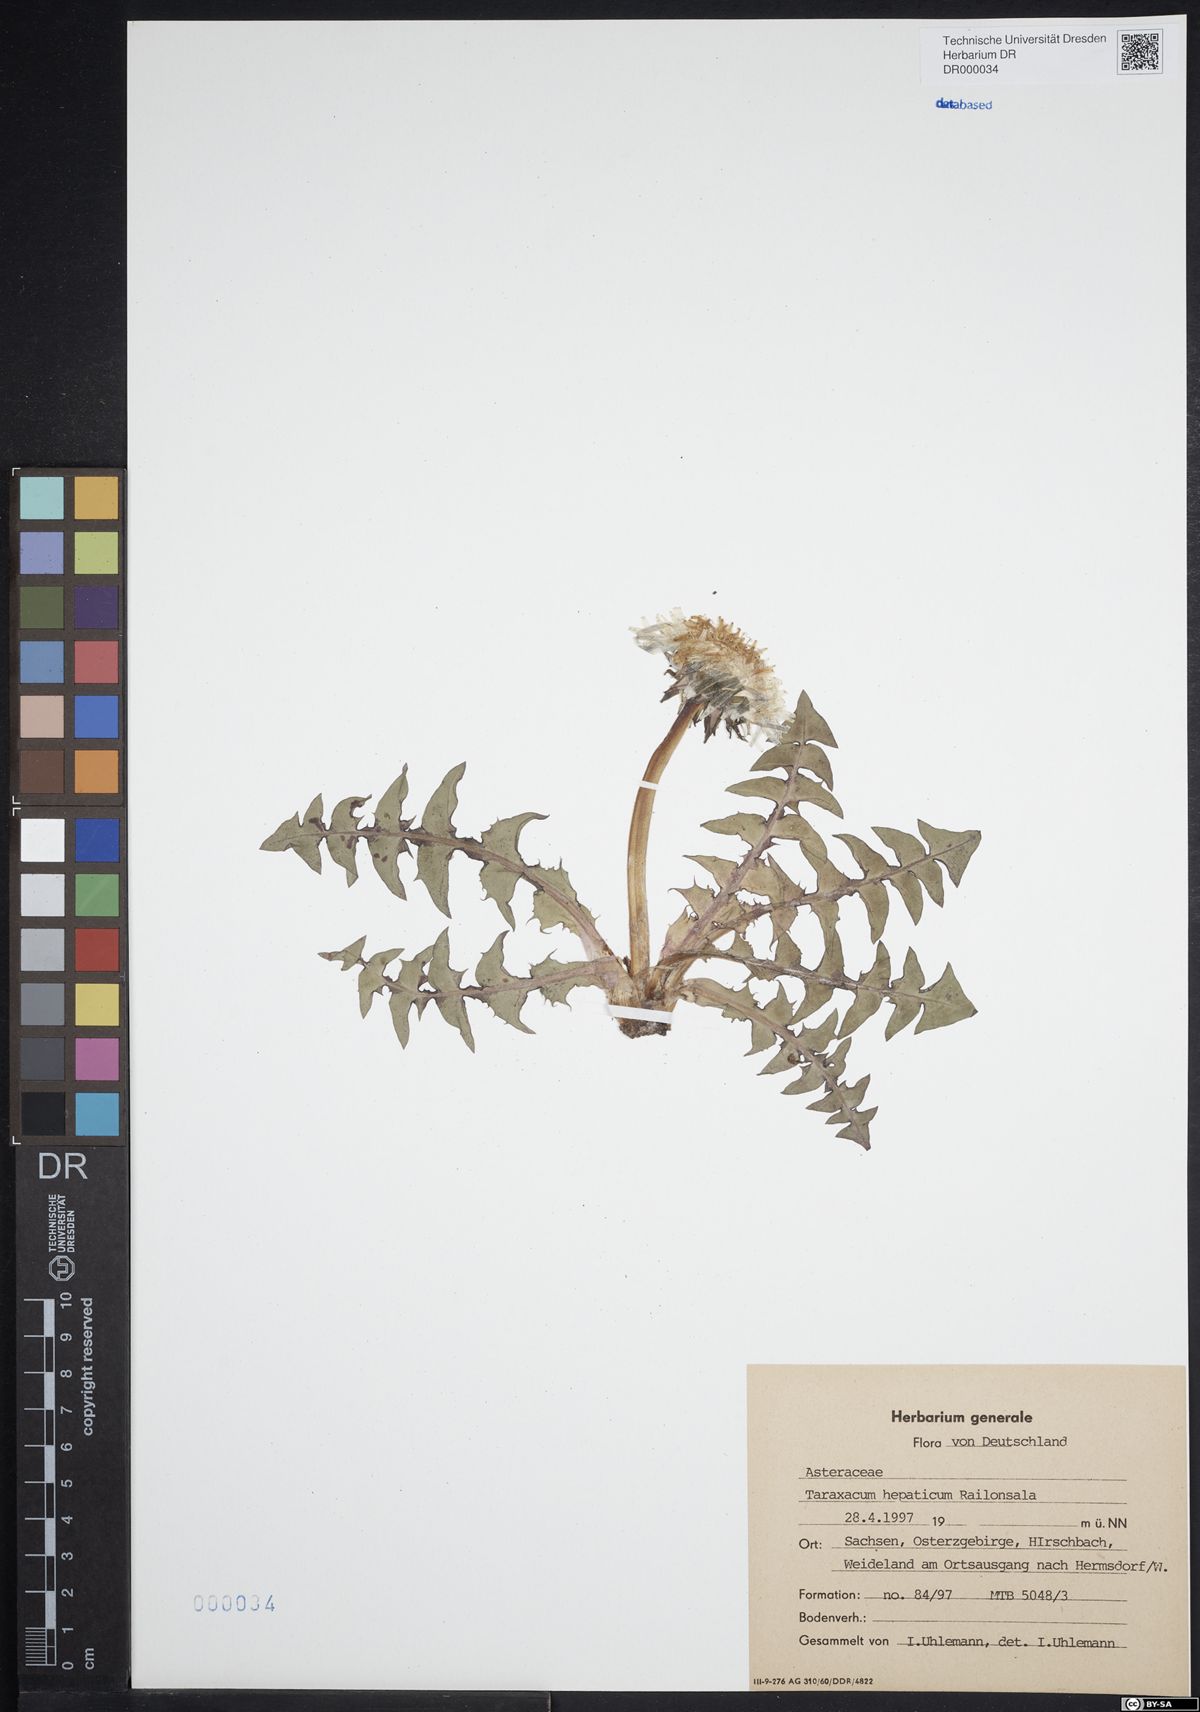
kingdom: Plantae
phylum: Tracheophyta
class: Magnoliopsida
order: Asterales
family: Asteraceae
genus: Taraxacum
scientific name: Taraxacum hepaticum
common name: Regular-lobed dandelion
